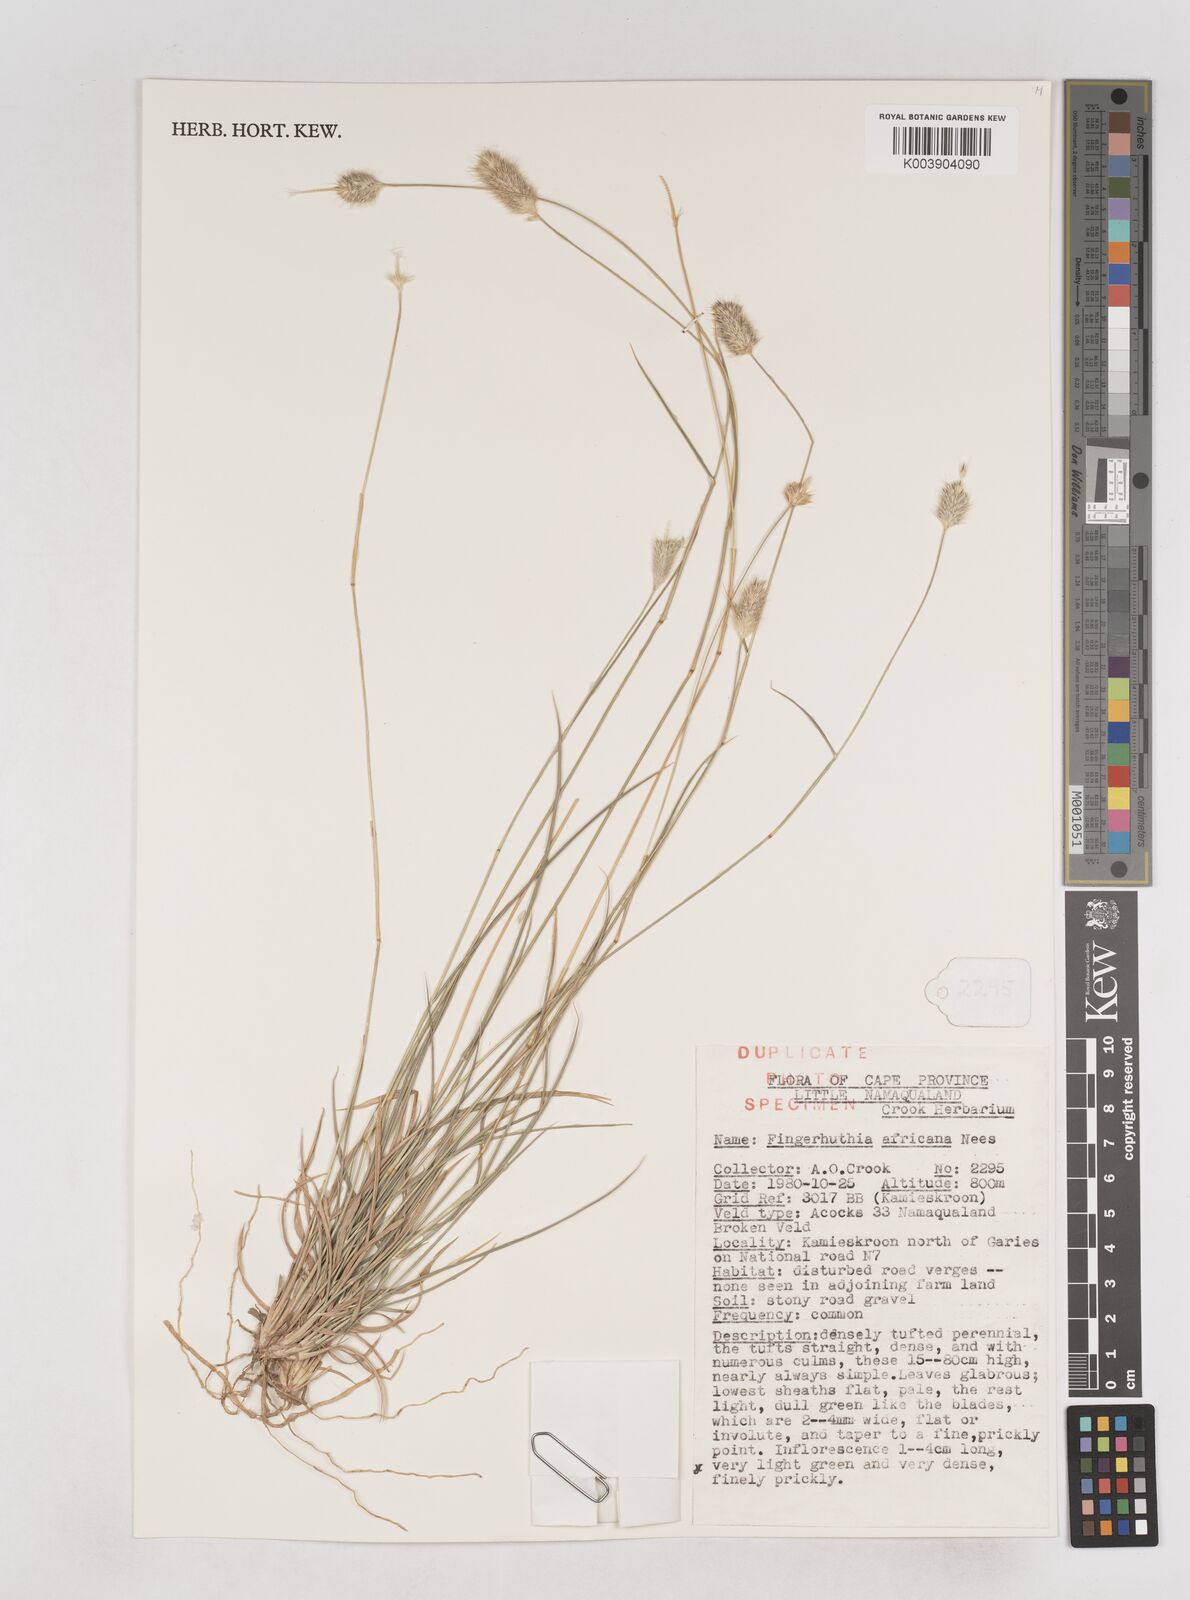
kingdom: Plantae
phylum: Tracheophyta
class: Liliopsida
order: Poales
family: Poaceae
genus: Fingerhuthia
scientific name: Fingerhuthia africana
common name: Zulu fescue
